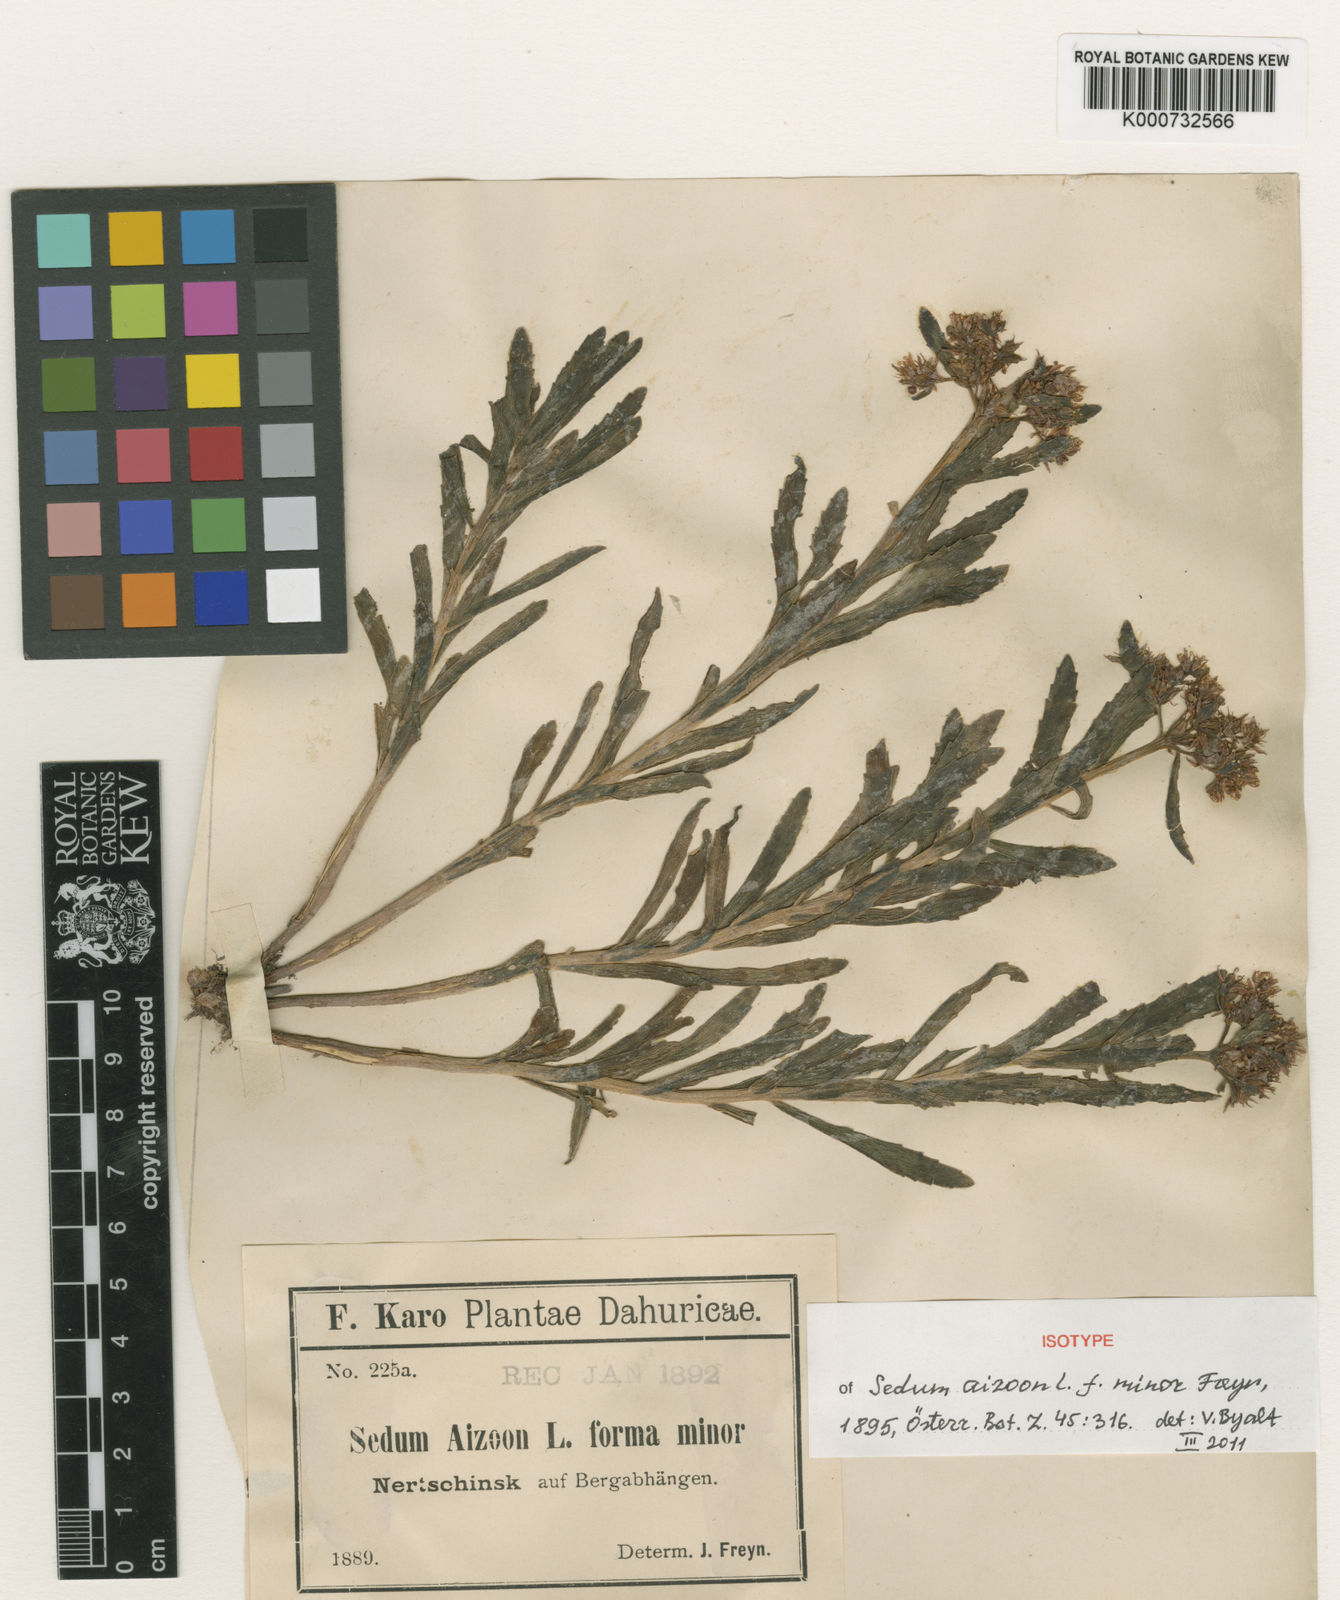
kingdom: Plantae
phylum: Tracheophyta
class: Magnoliopsida
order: Saxifragales
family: Crassulaceae
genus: Phedimus
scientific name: Phedimus aizoon
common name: Orpin aizoon
